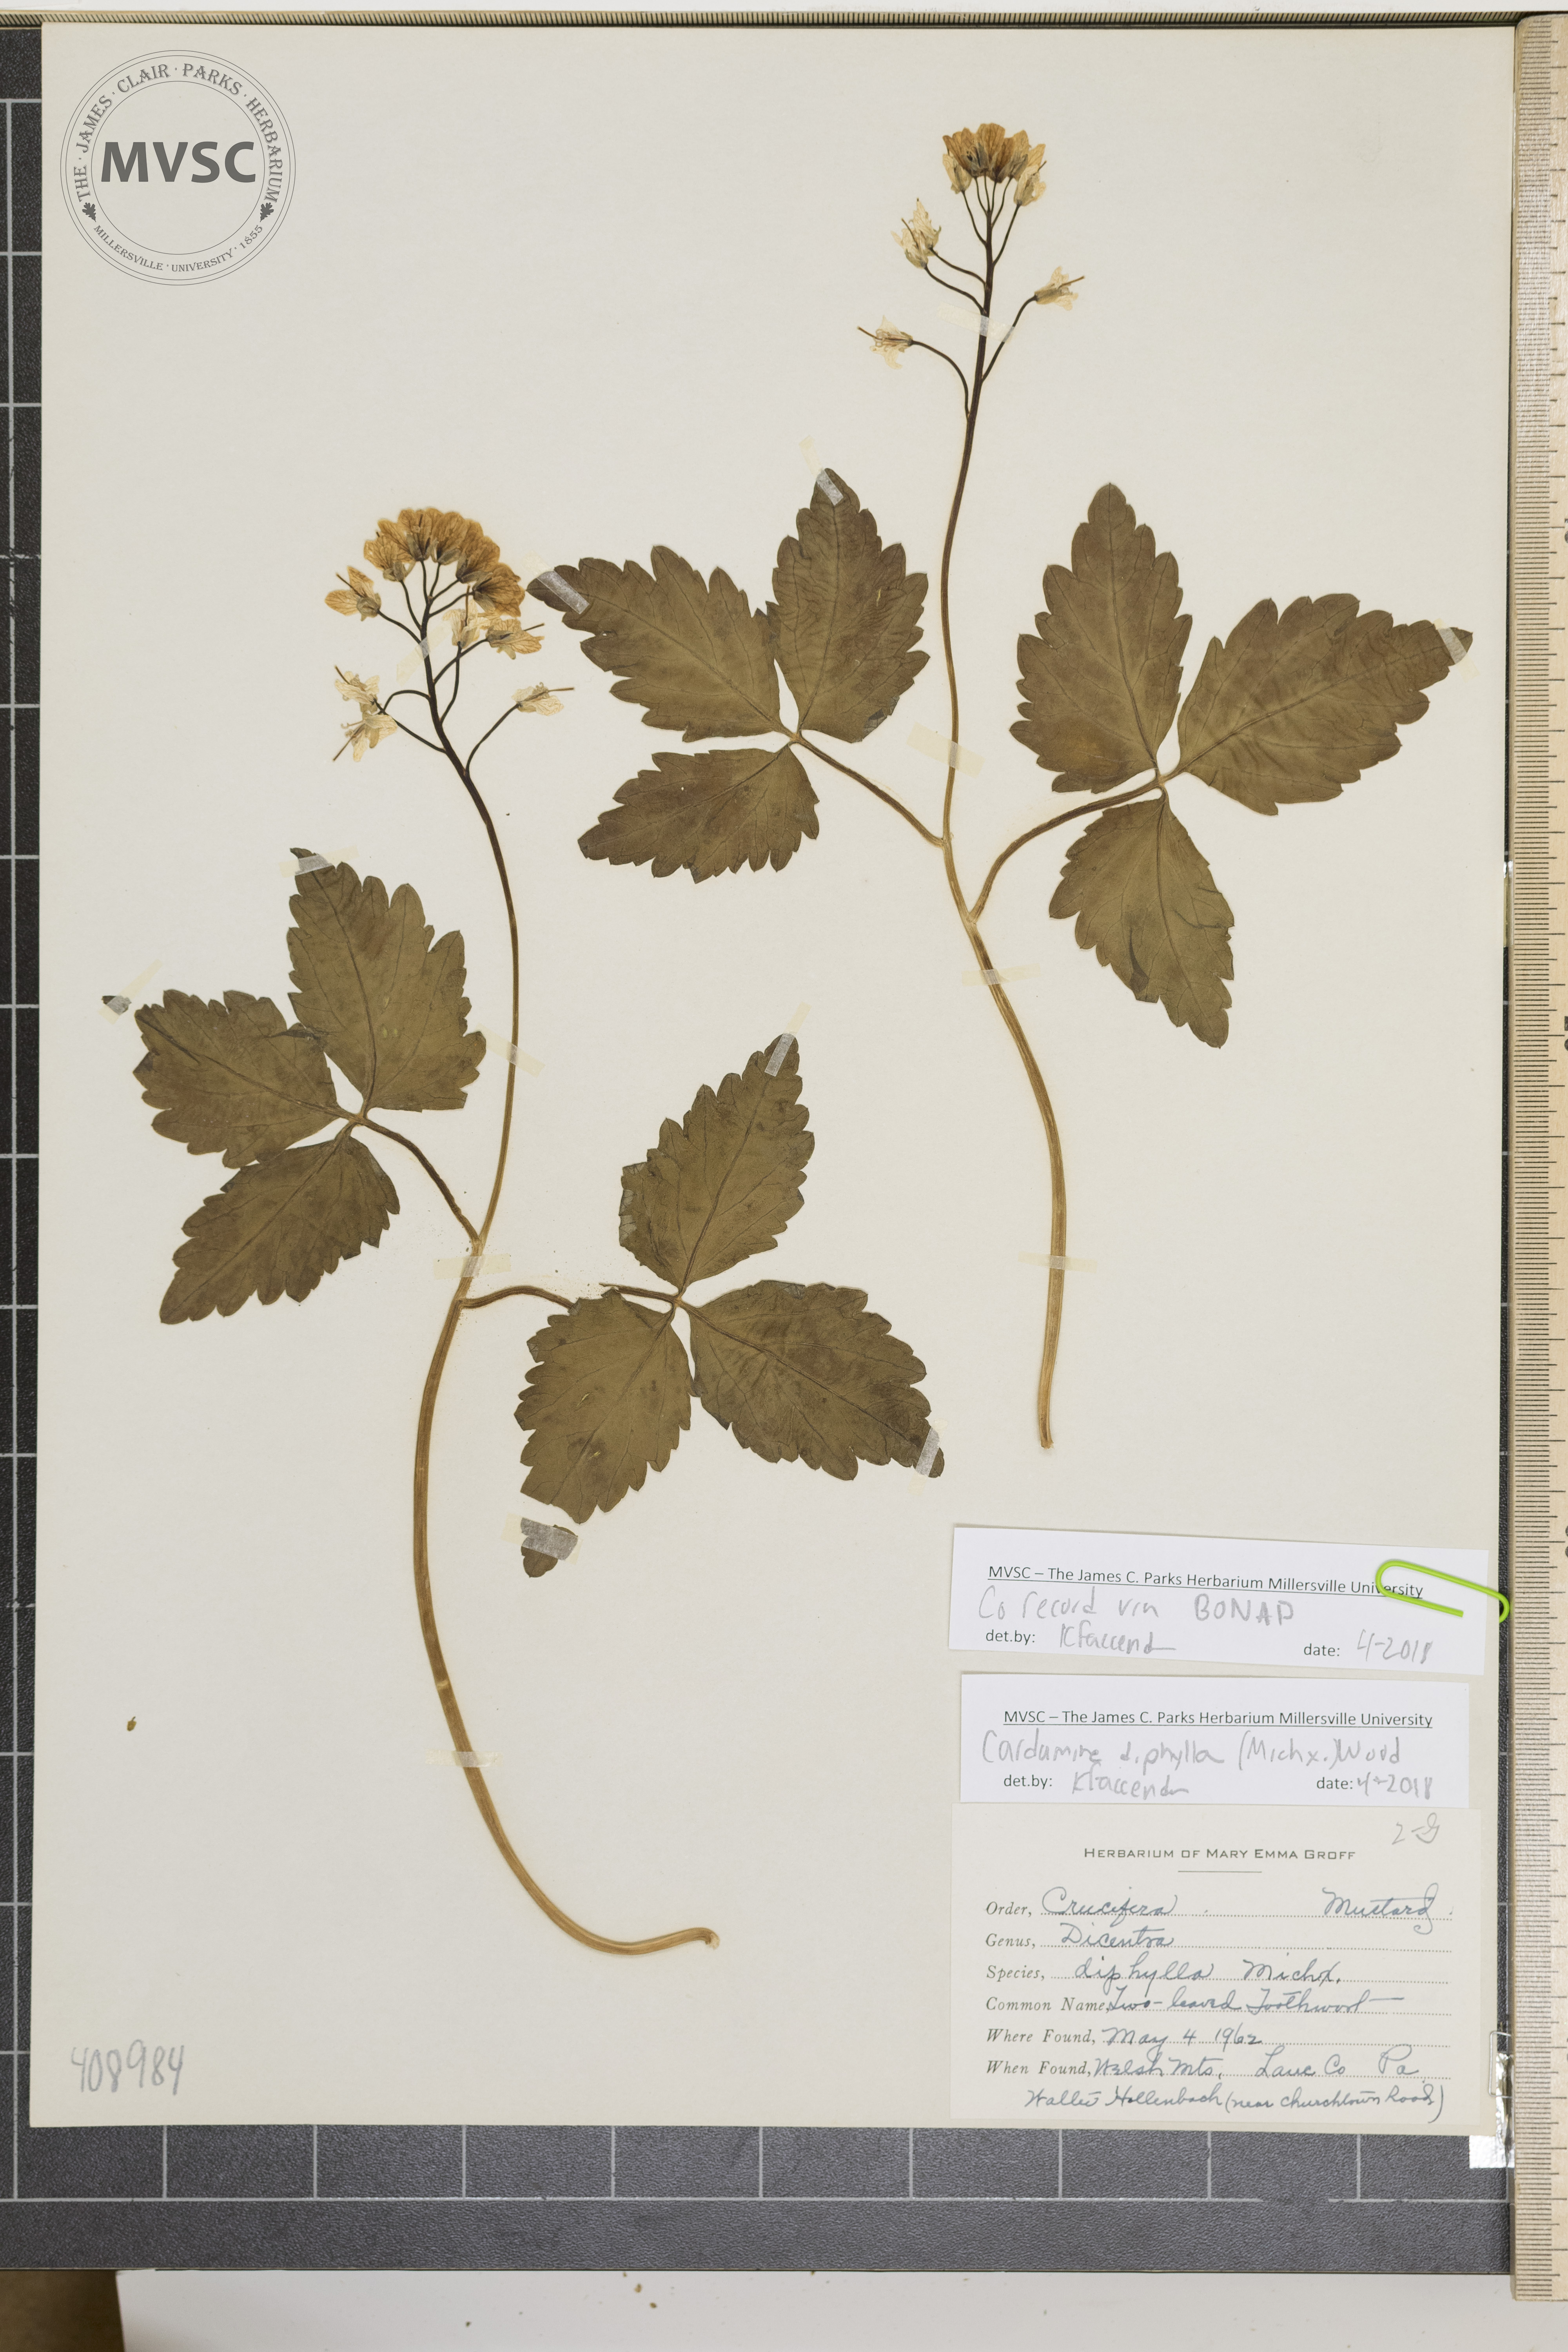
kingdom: Plantae
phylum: Tracheophyta
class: Magnoliopsida
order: Brassicales
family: Brassicaceae
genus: Cardamine
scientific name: Cardamine diphylla
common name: Two-leaved Toothwort
